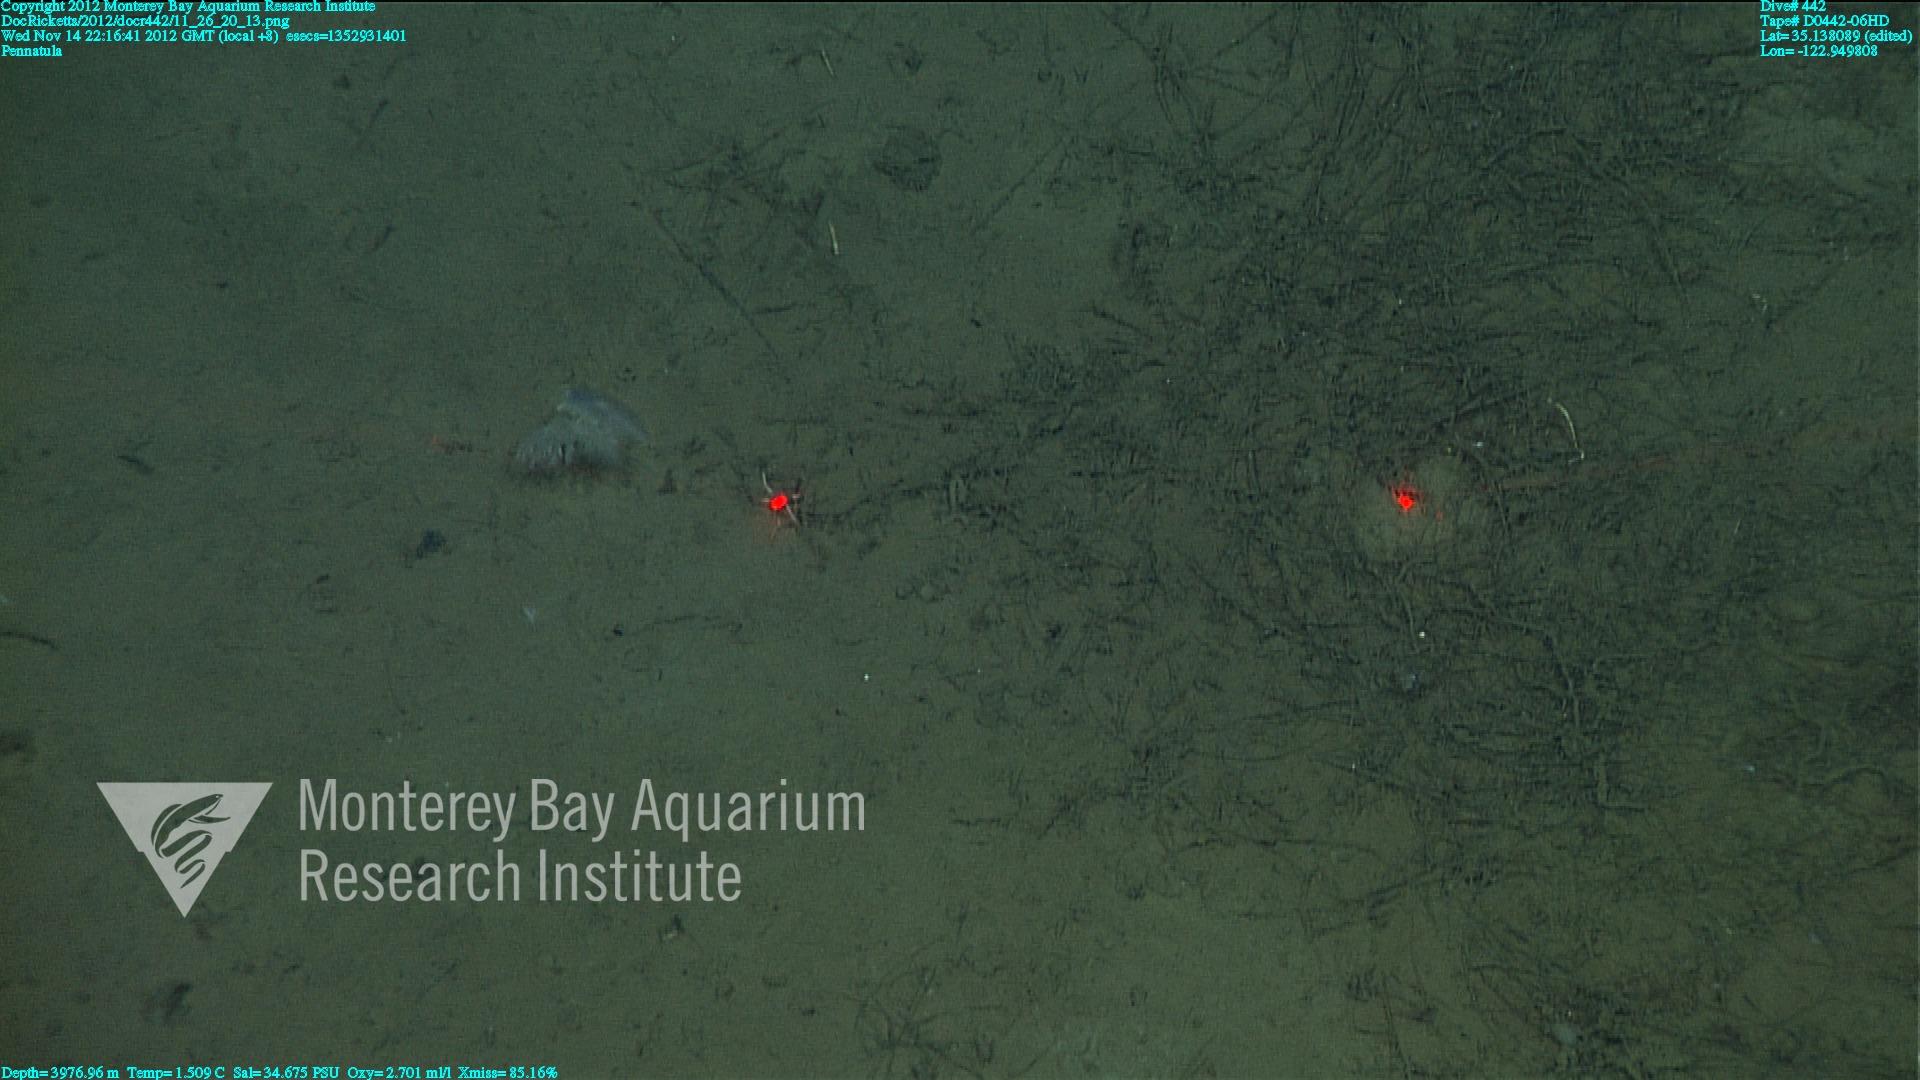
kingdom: Animalia
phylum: Cnidaria
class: Anthozoa
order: Scleralcyonacea
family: Pennatulidae
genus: Pennatula
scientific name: Pennatula
